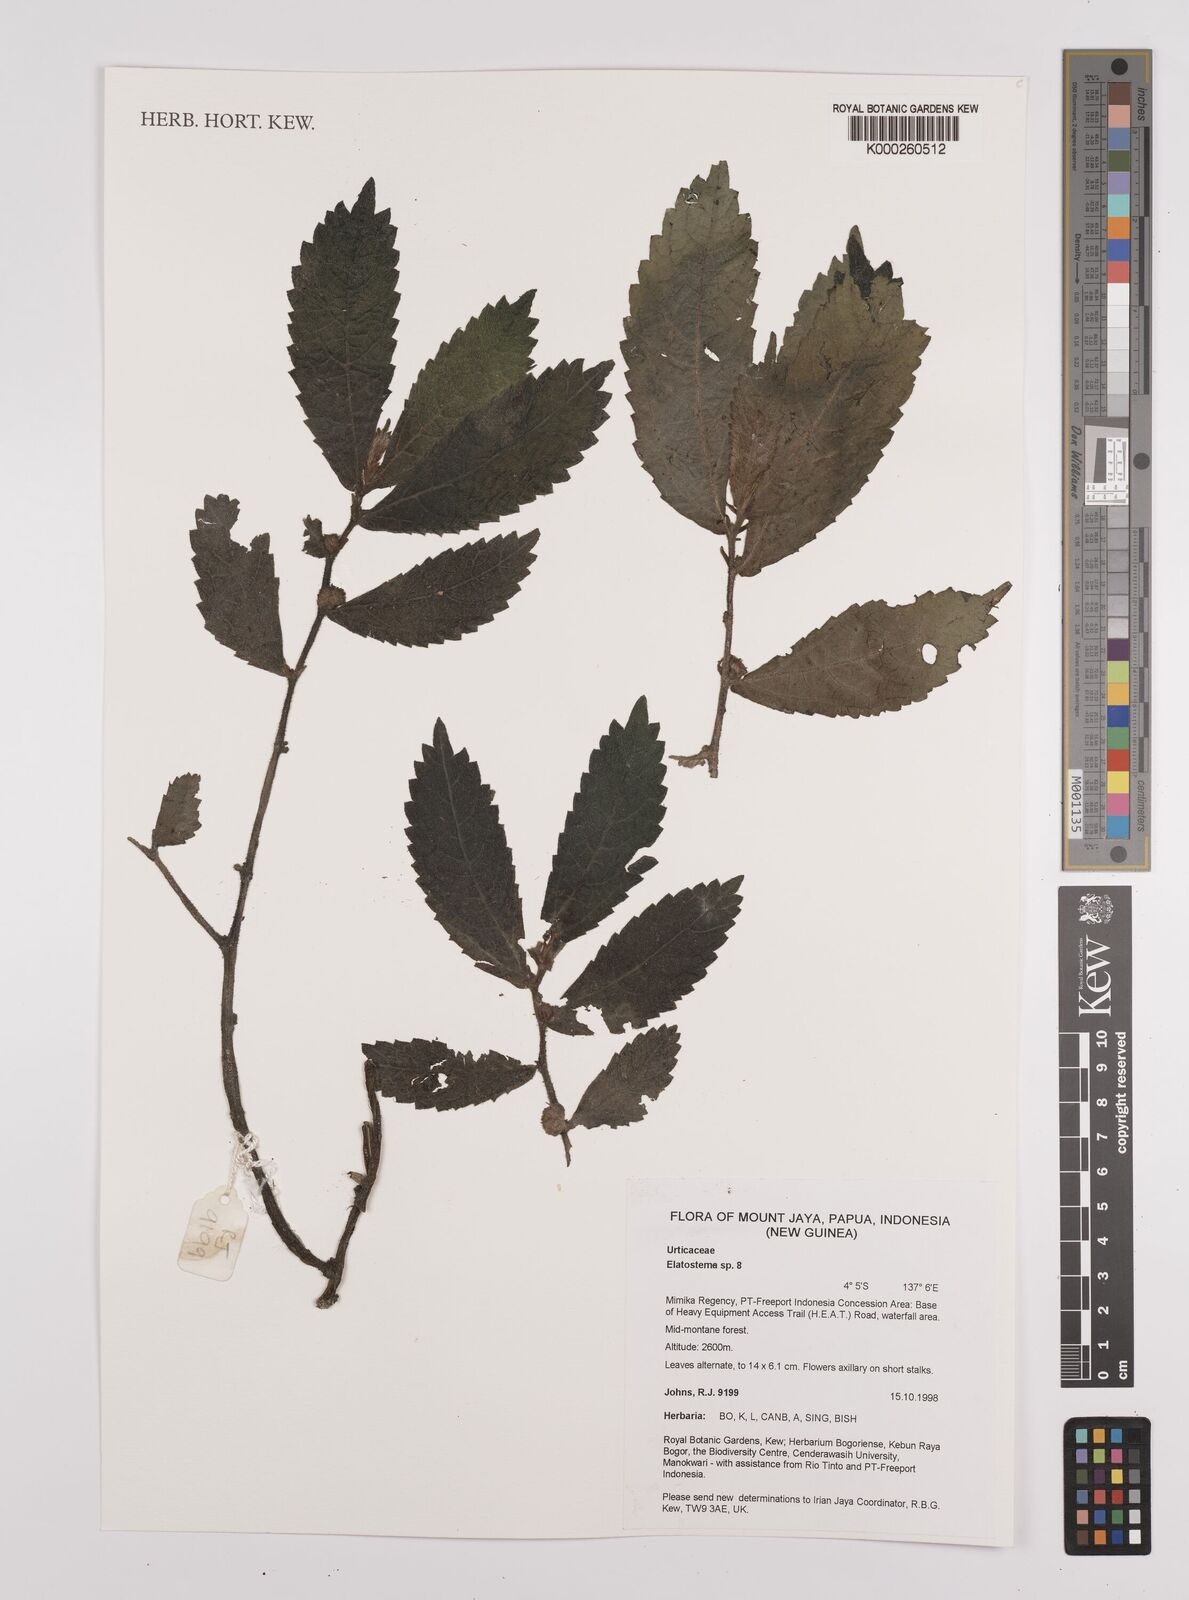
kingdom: Plantae
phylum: Tracheophyta
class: Magnoliopsida
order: Rosales
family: Urticaceae
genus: Elatostema
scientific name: Elatostema
